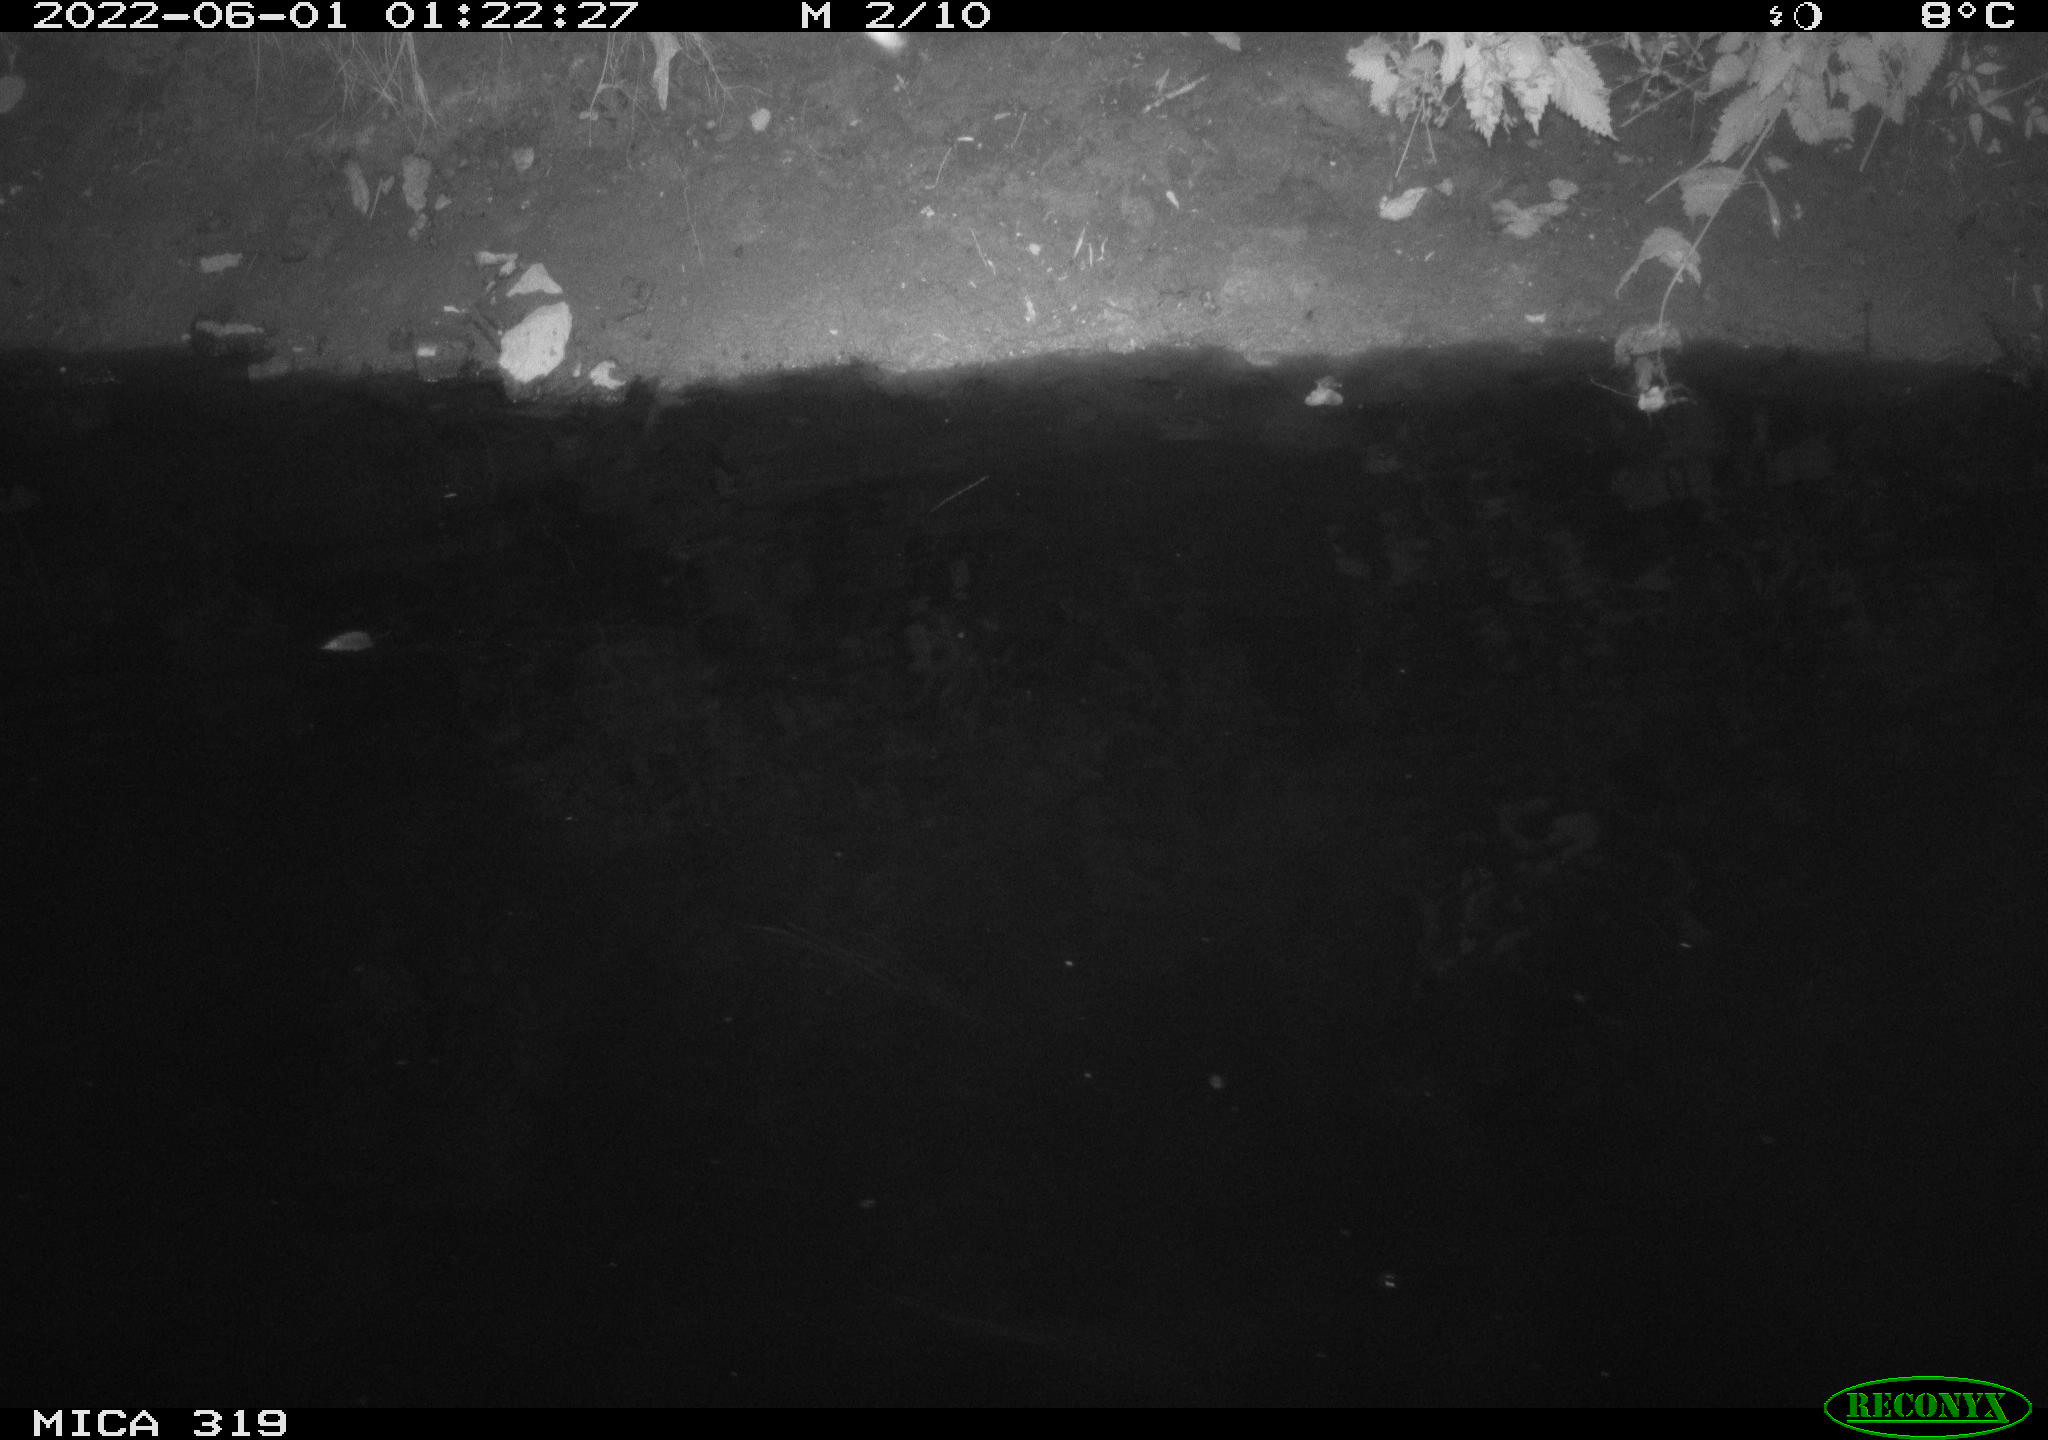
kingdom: Animalia
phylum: Chordata
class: Aves
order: Anseriformes
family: Anatidae
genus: Anas
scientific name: Anas
